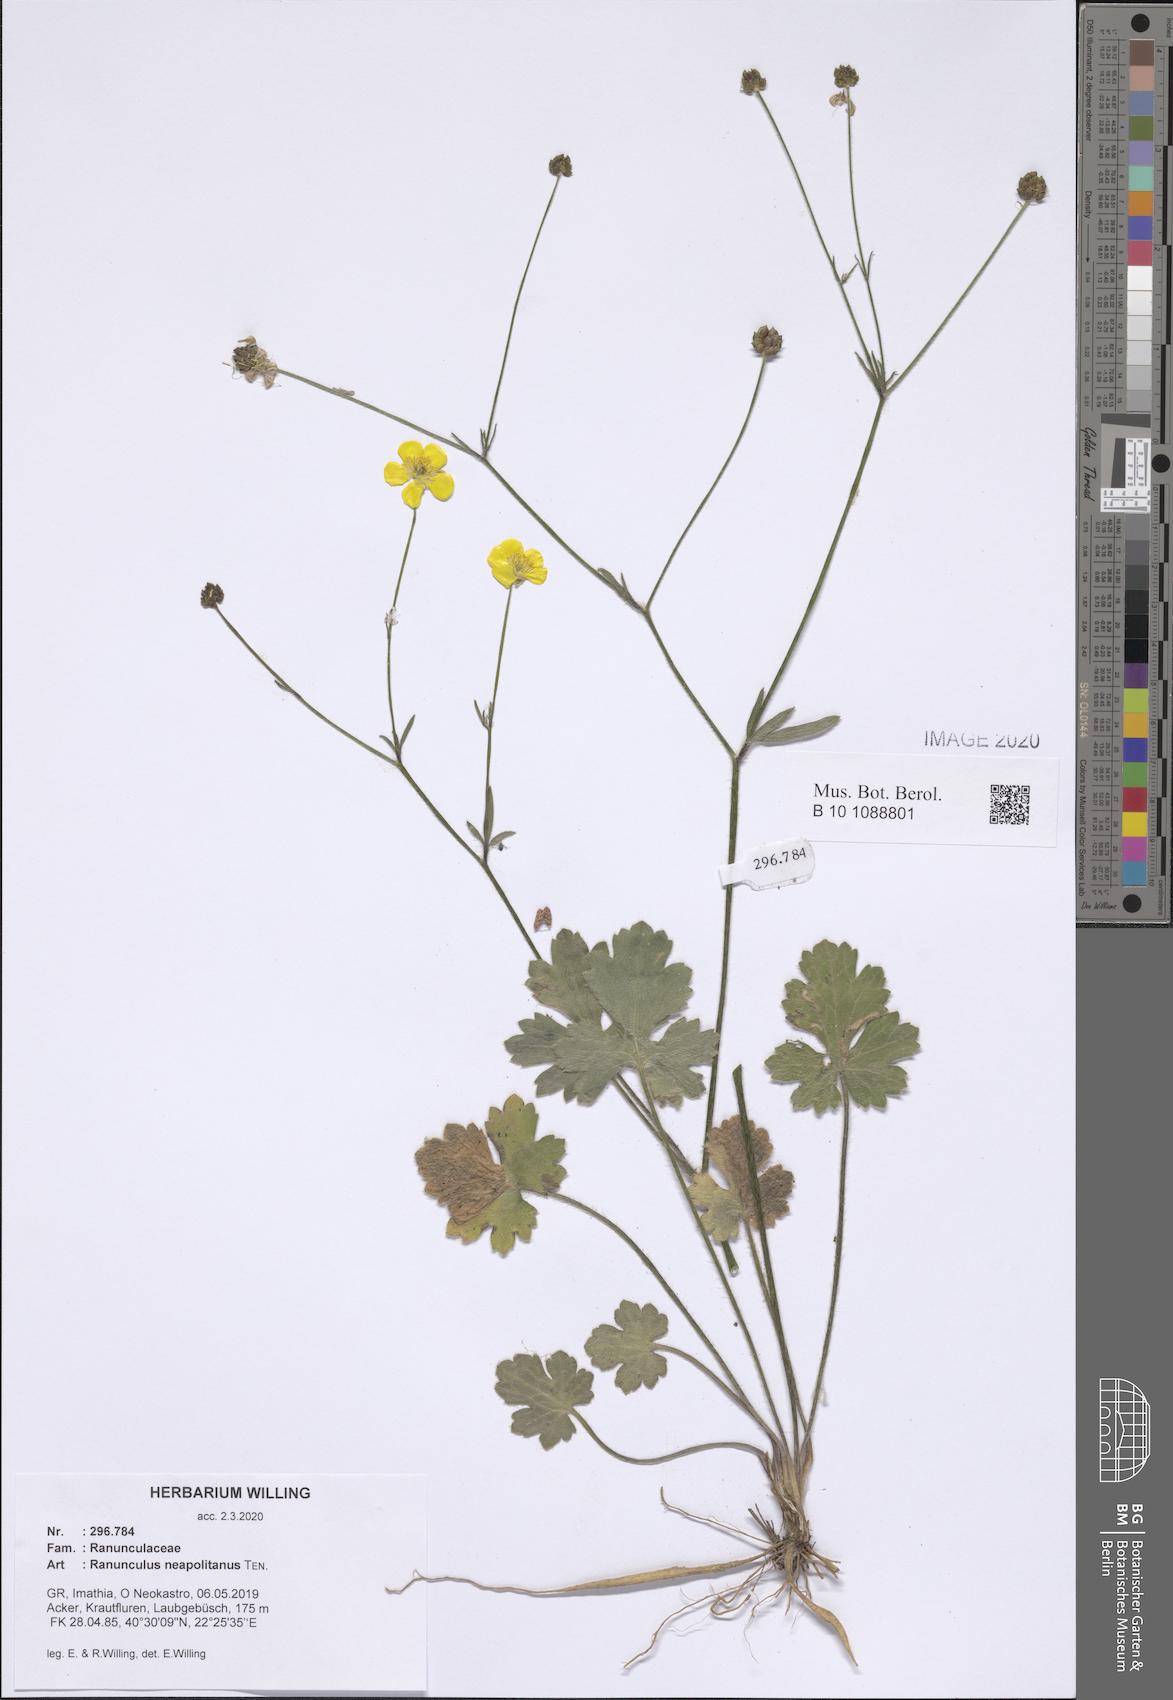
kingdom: Plantae
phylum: Tracheophyta
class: Magnoliopsida
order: Ranunculales
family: Ranunculaceae
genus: Ranunculus
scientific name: Ranunculus neapolitanus
